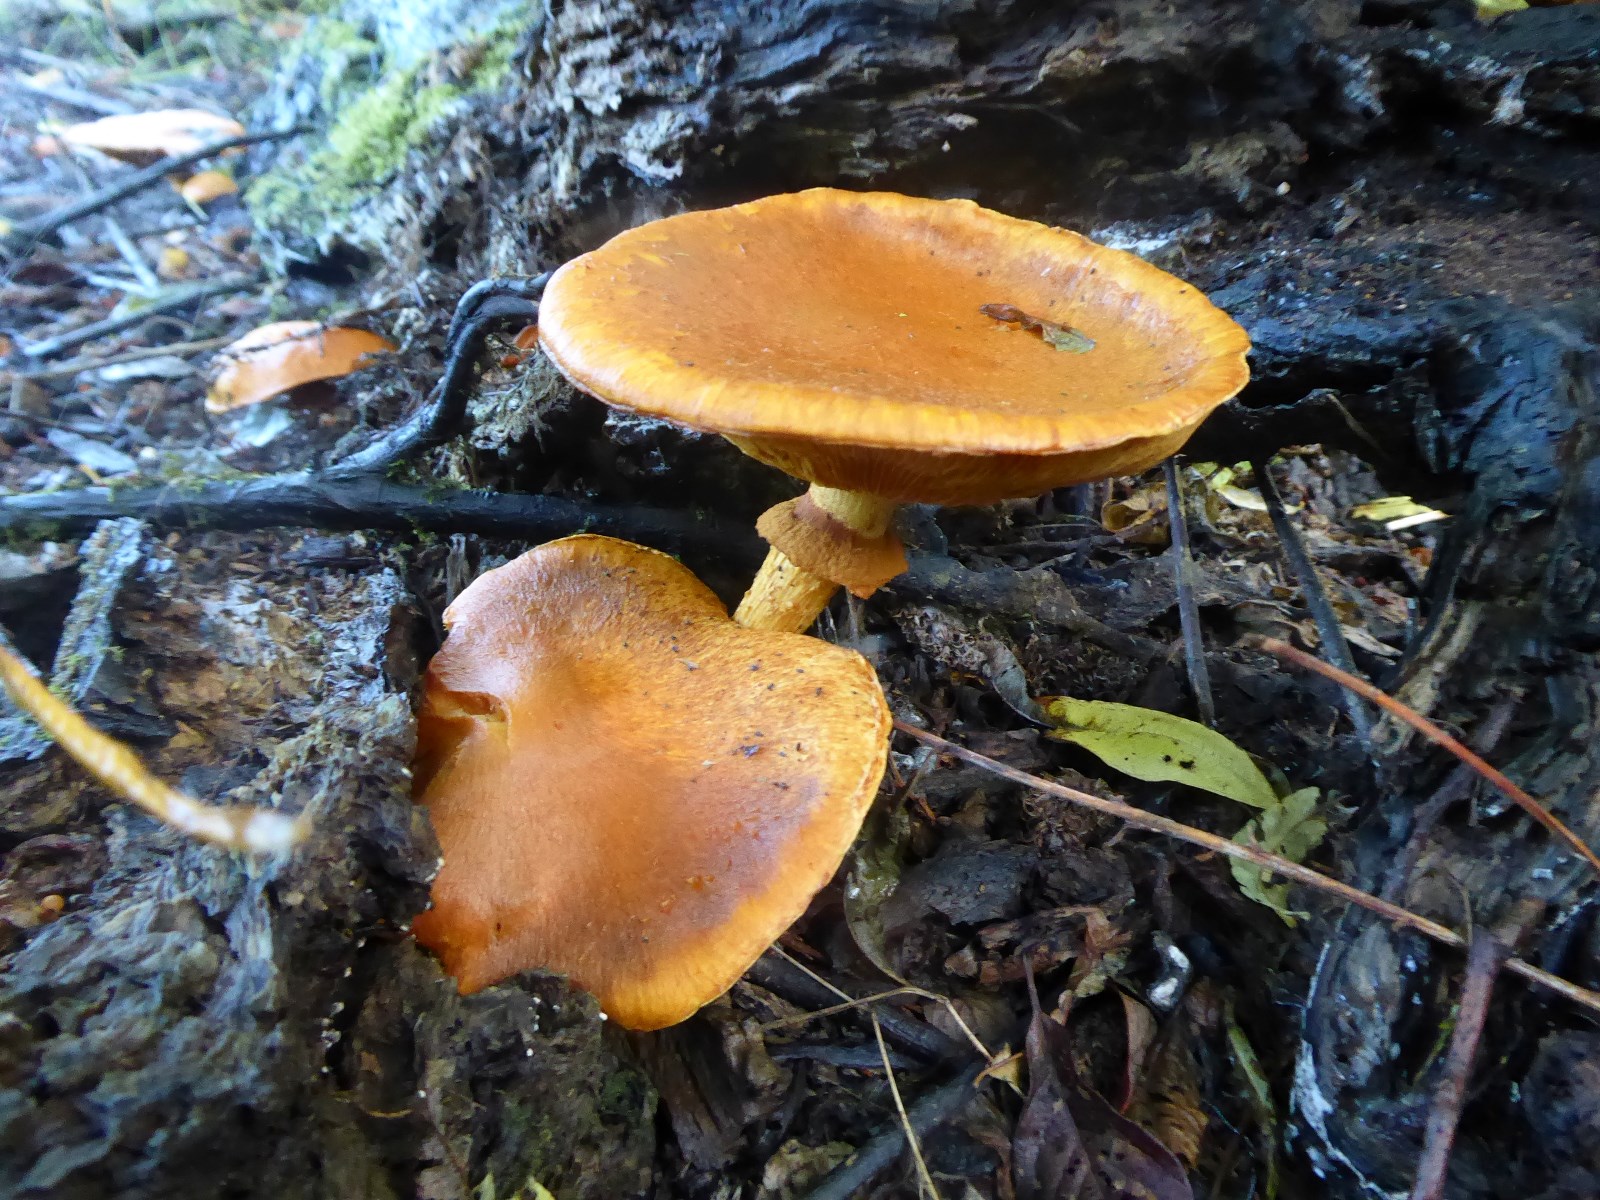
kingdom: Fungi
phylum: Basidiomycota
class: Agaricomycetes
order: Agaricales
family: Hymenogastraceae
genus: Gymnopilus
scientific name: Gymnopilus spectabilis
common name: fibret flammehat
